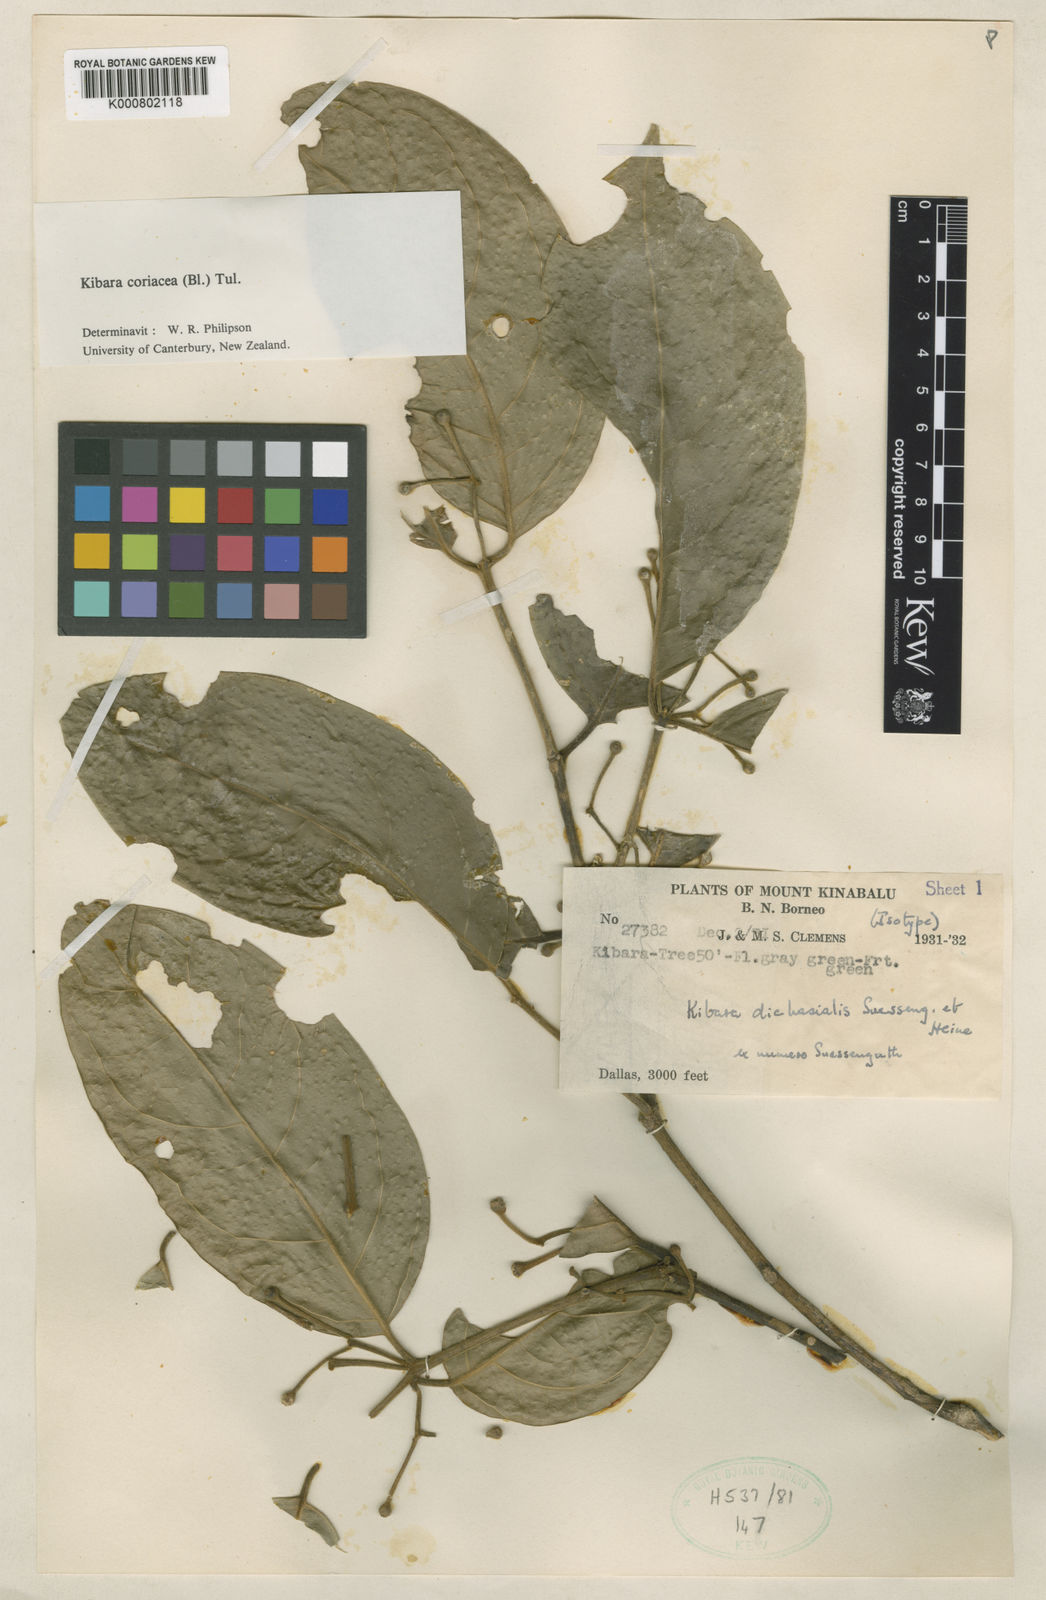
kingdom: Plantae
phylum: Tracheophyta
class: Magnoliopsida
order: Laurales
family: Monimiaceae
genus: Kibara
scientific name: Kibara coriacea
